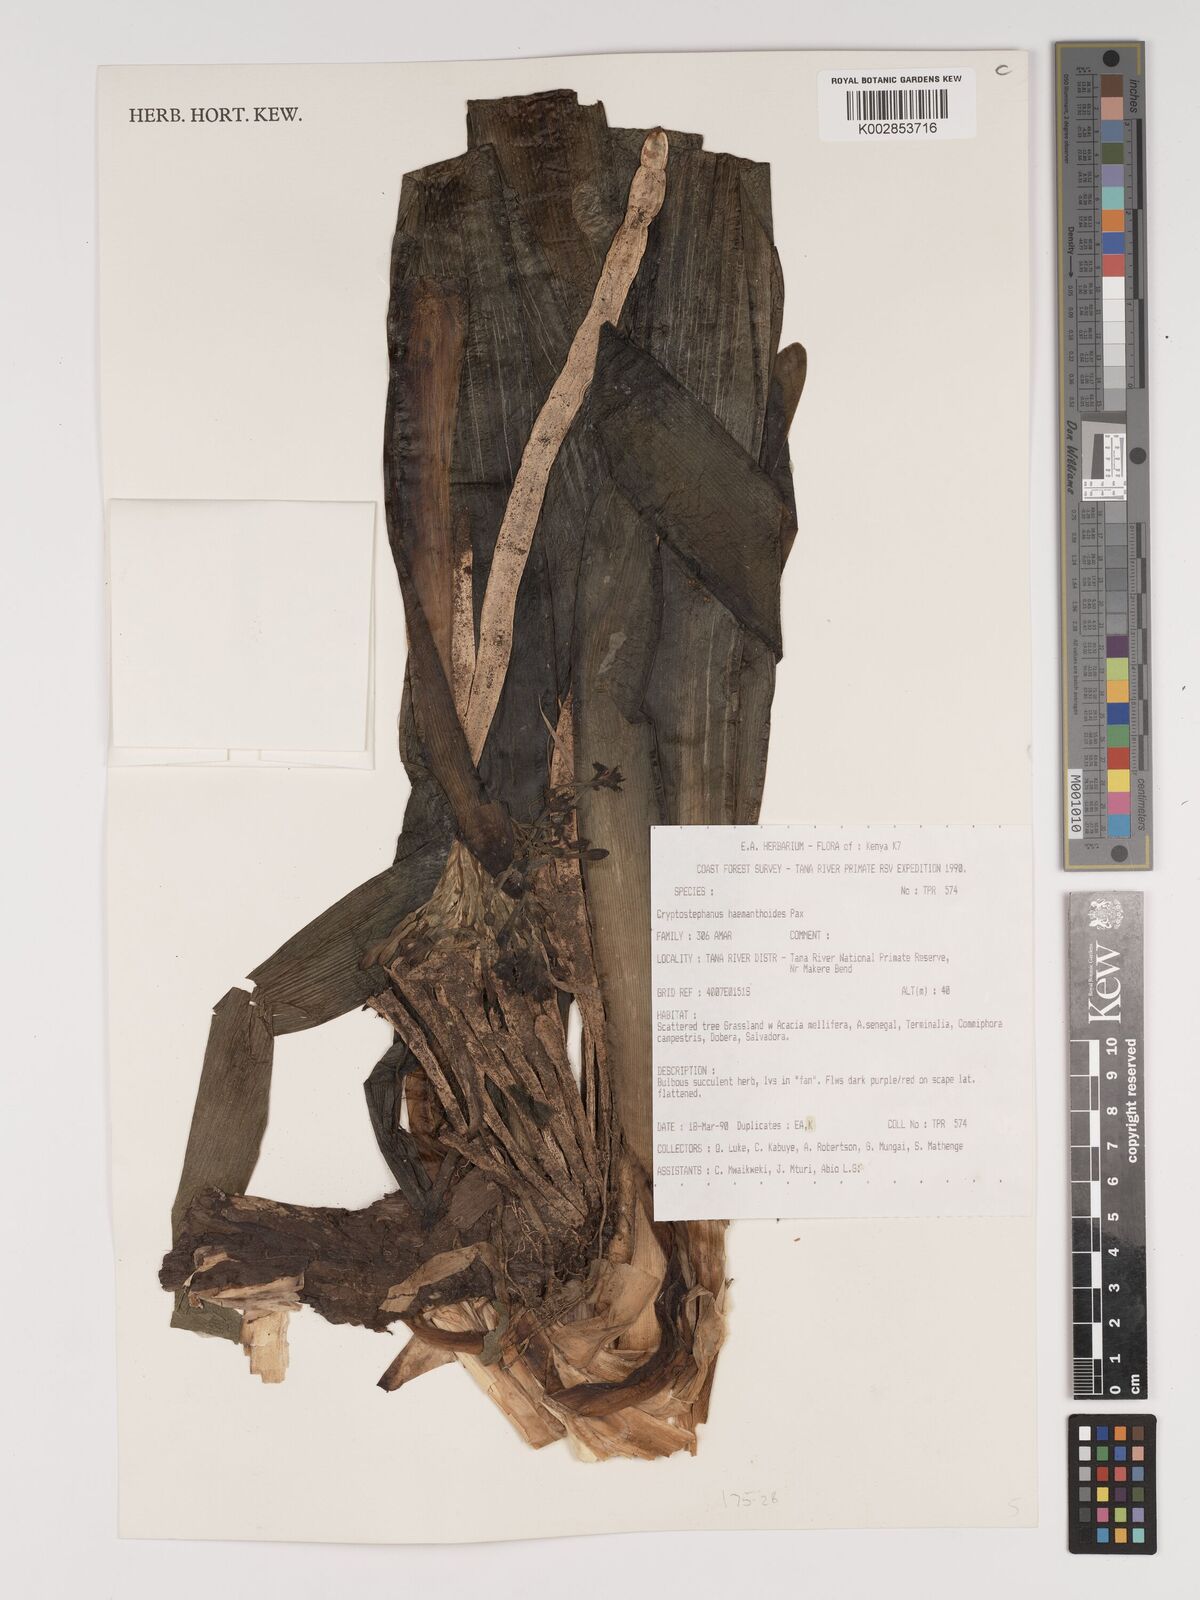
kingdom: Plantae
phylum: Tracheophyta
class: Liliopsida
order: Asparagales
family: Amaryllidaceae
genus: Cryptostephanus
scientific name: Cryptostephanus haemanthoides
